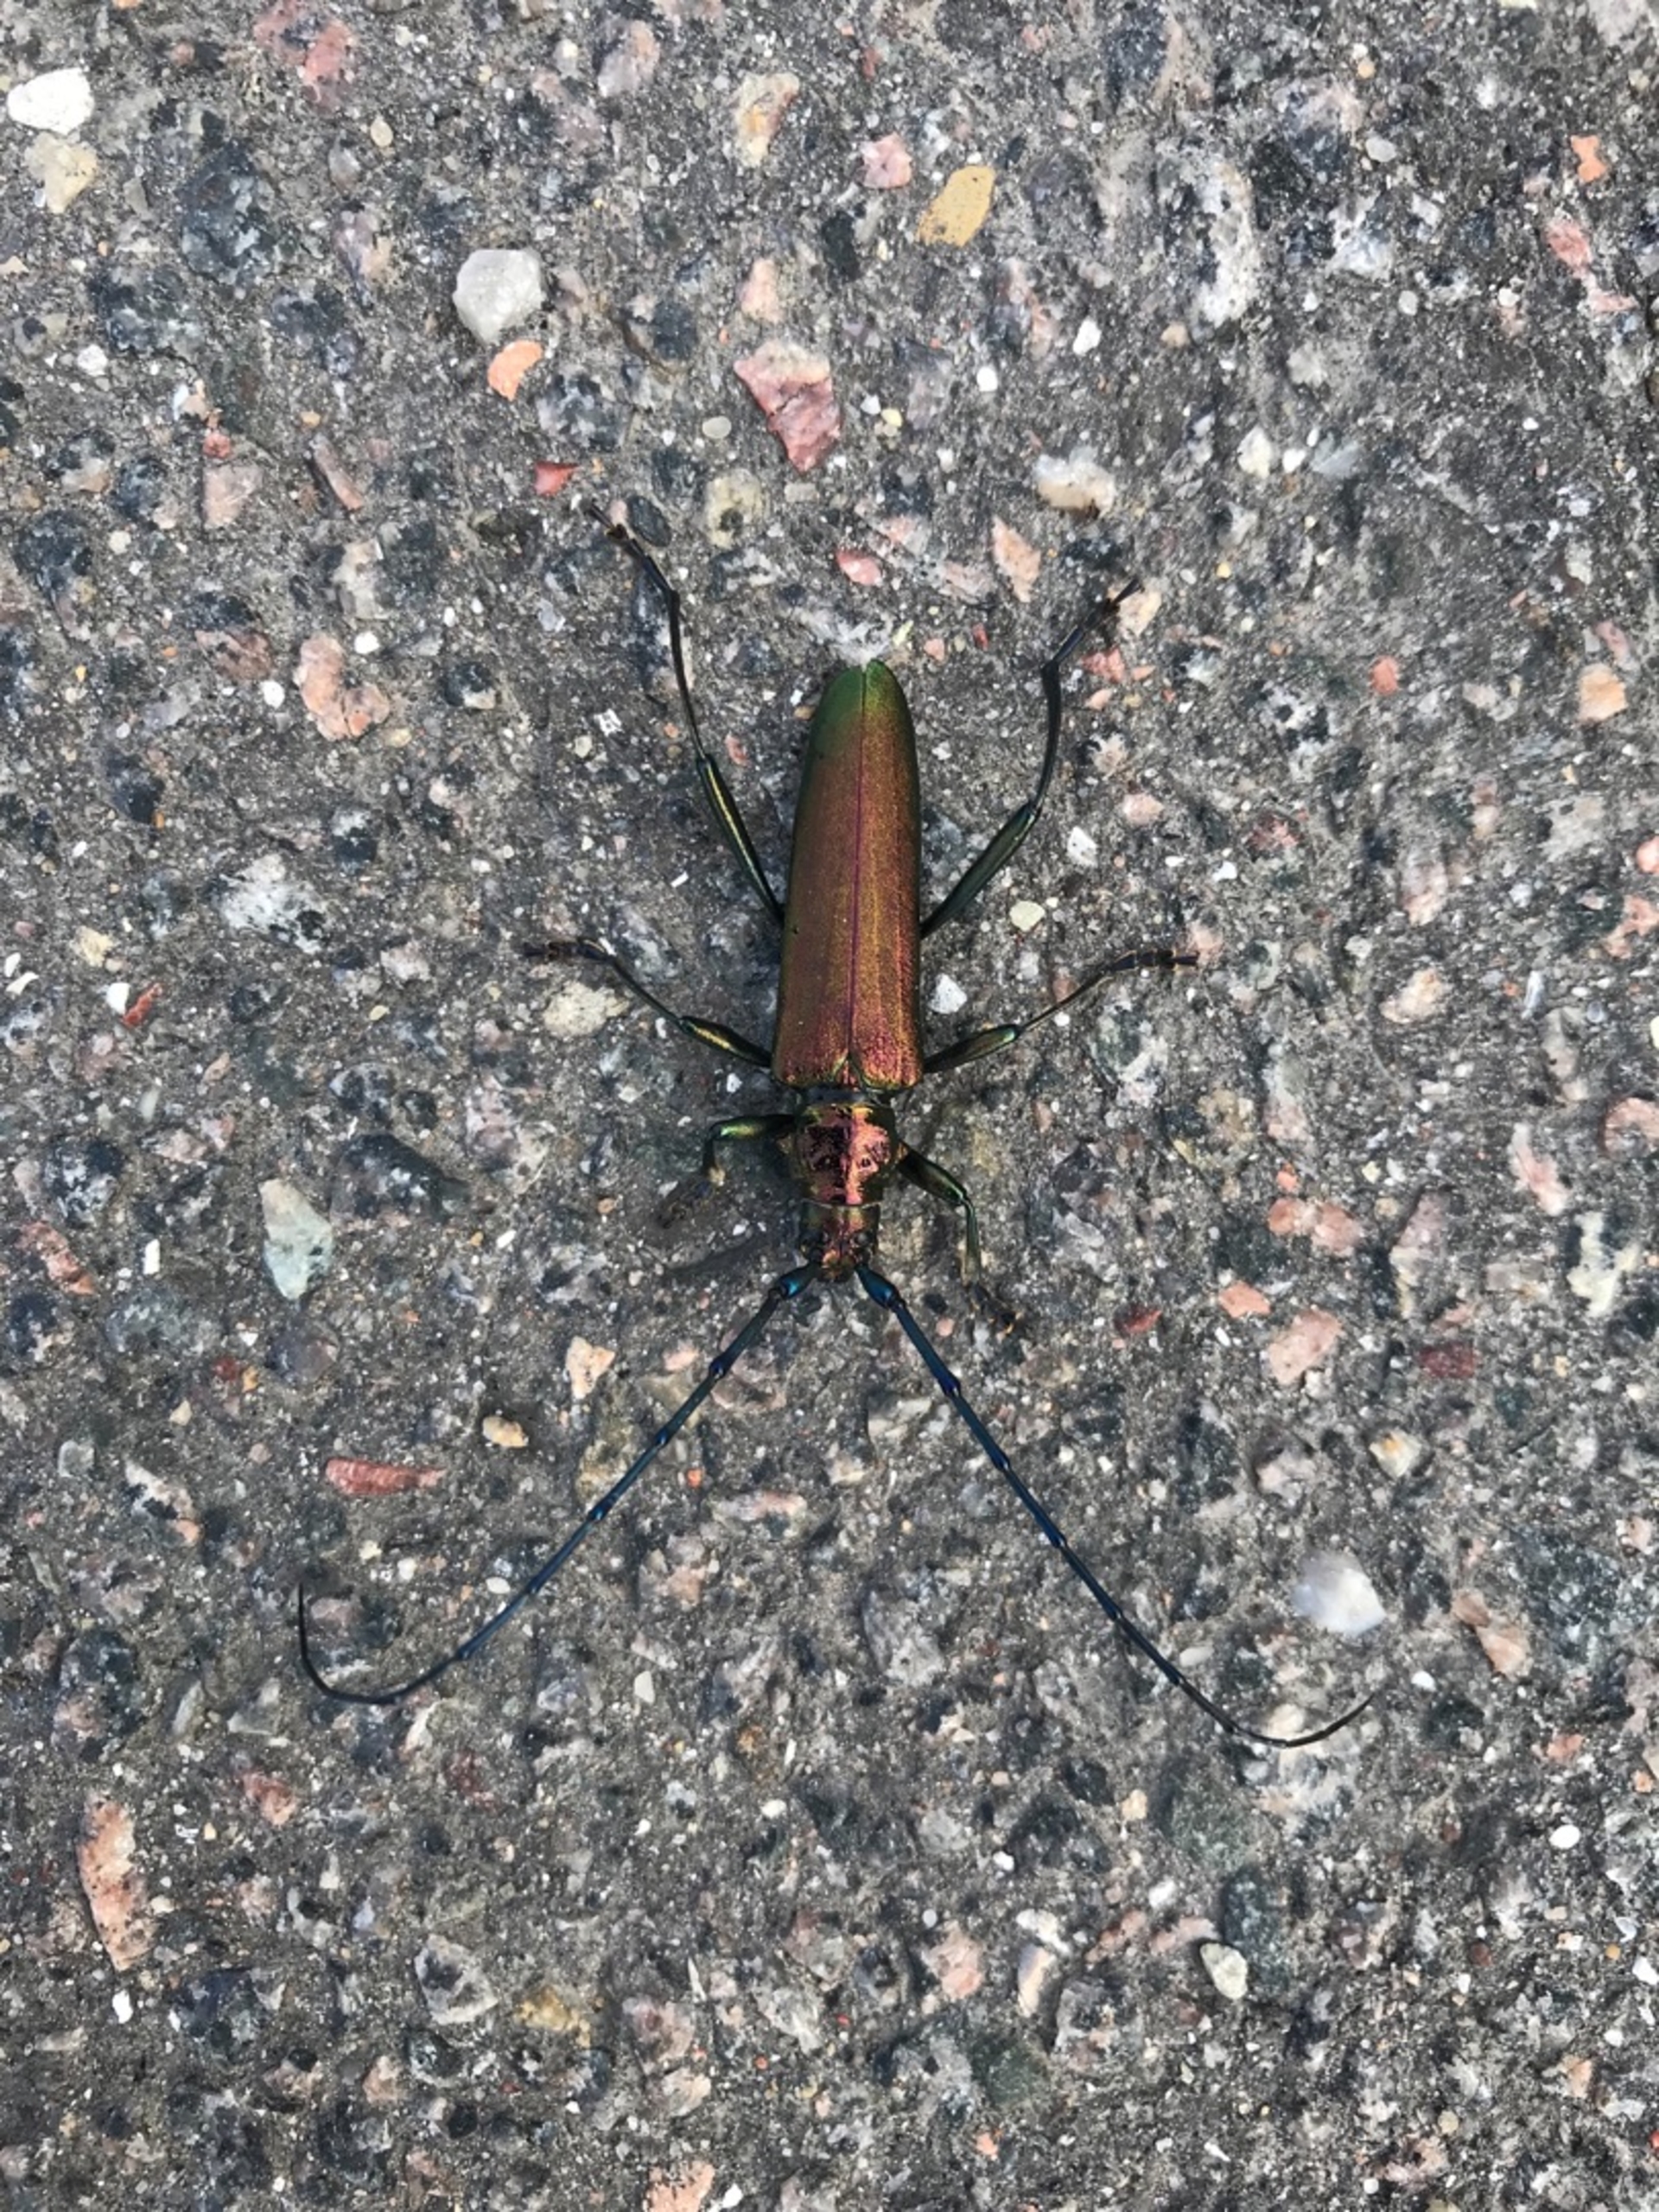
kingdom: Animalia
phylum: Arthropoda
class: Insecta
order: Coleoptera
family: Cerambycidae
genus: Aromia
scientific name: Aromia moschata
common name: Moskusbuk
